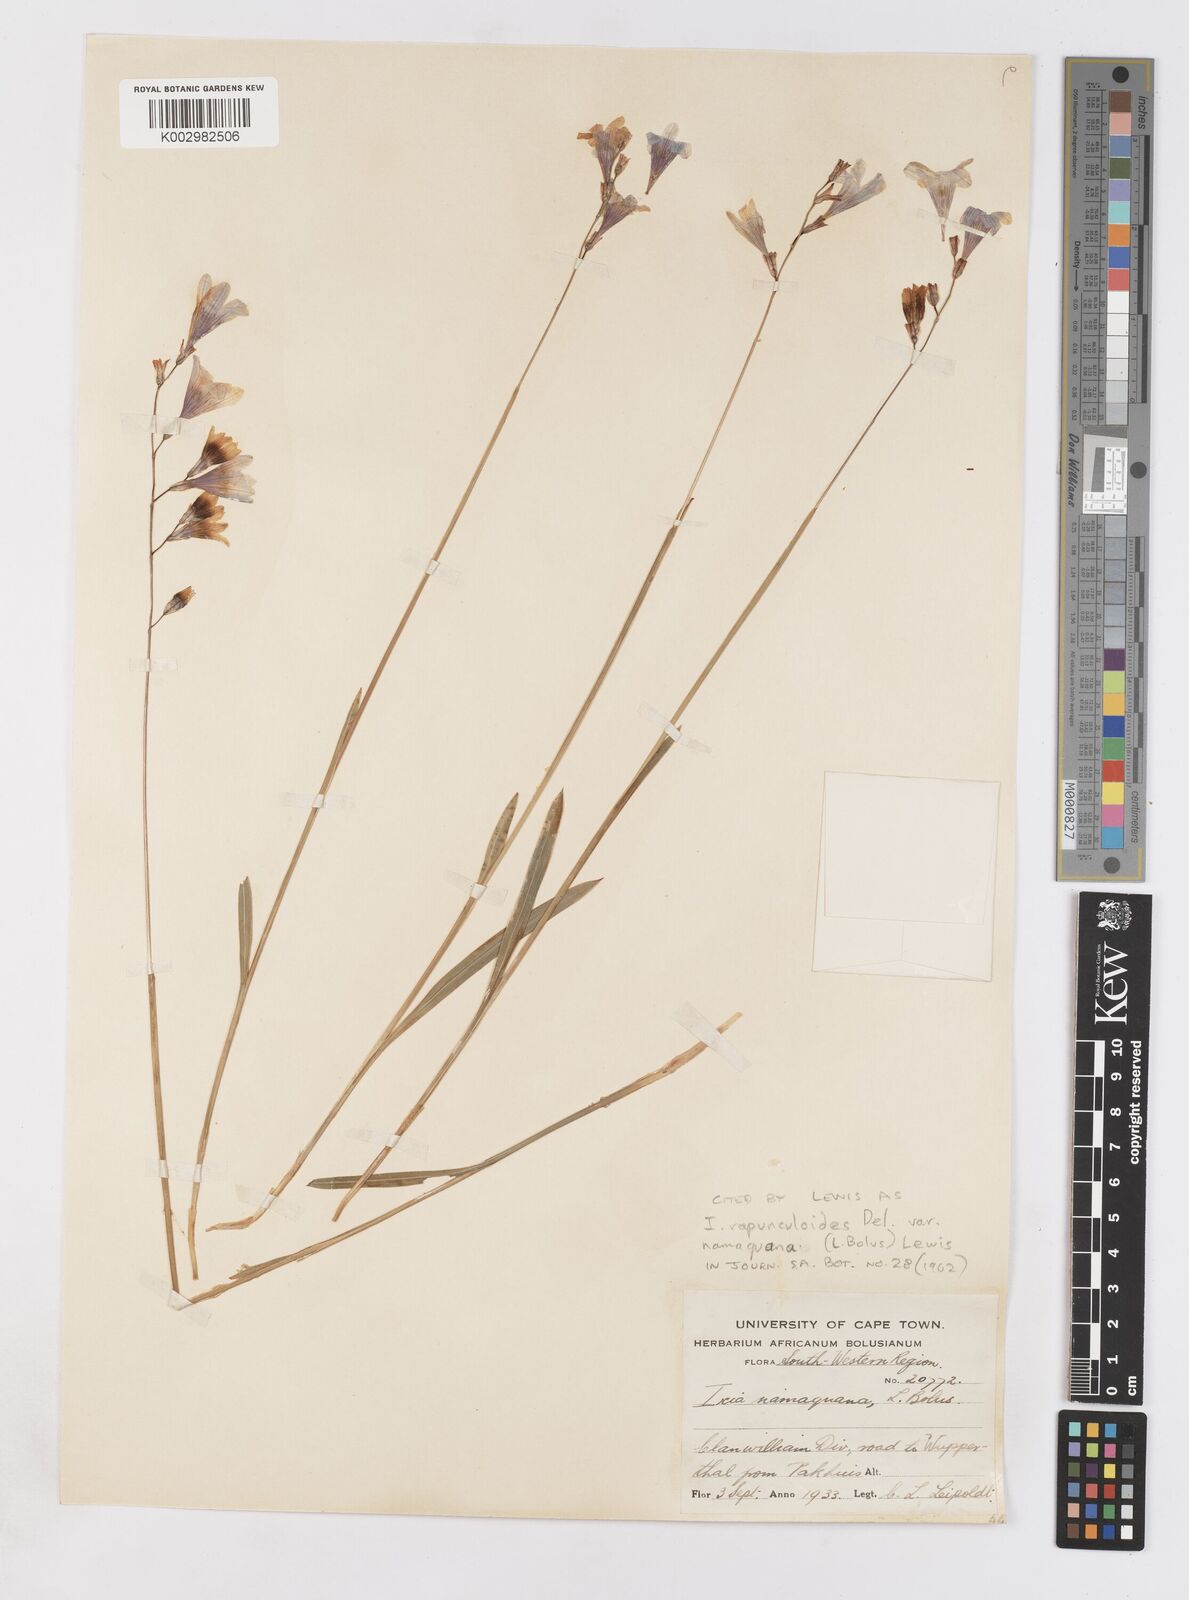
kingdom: Plantae
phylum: Tracheophyta
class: Liliopsida
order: Asparagales
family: Iridaceae
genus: Ixia
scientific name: Ixia rapunculoides
